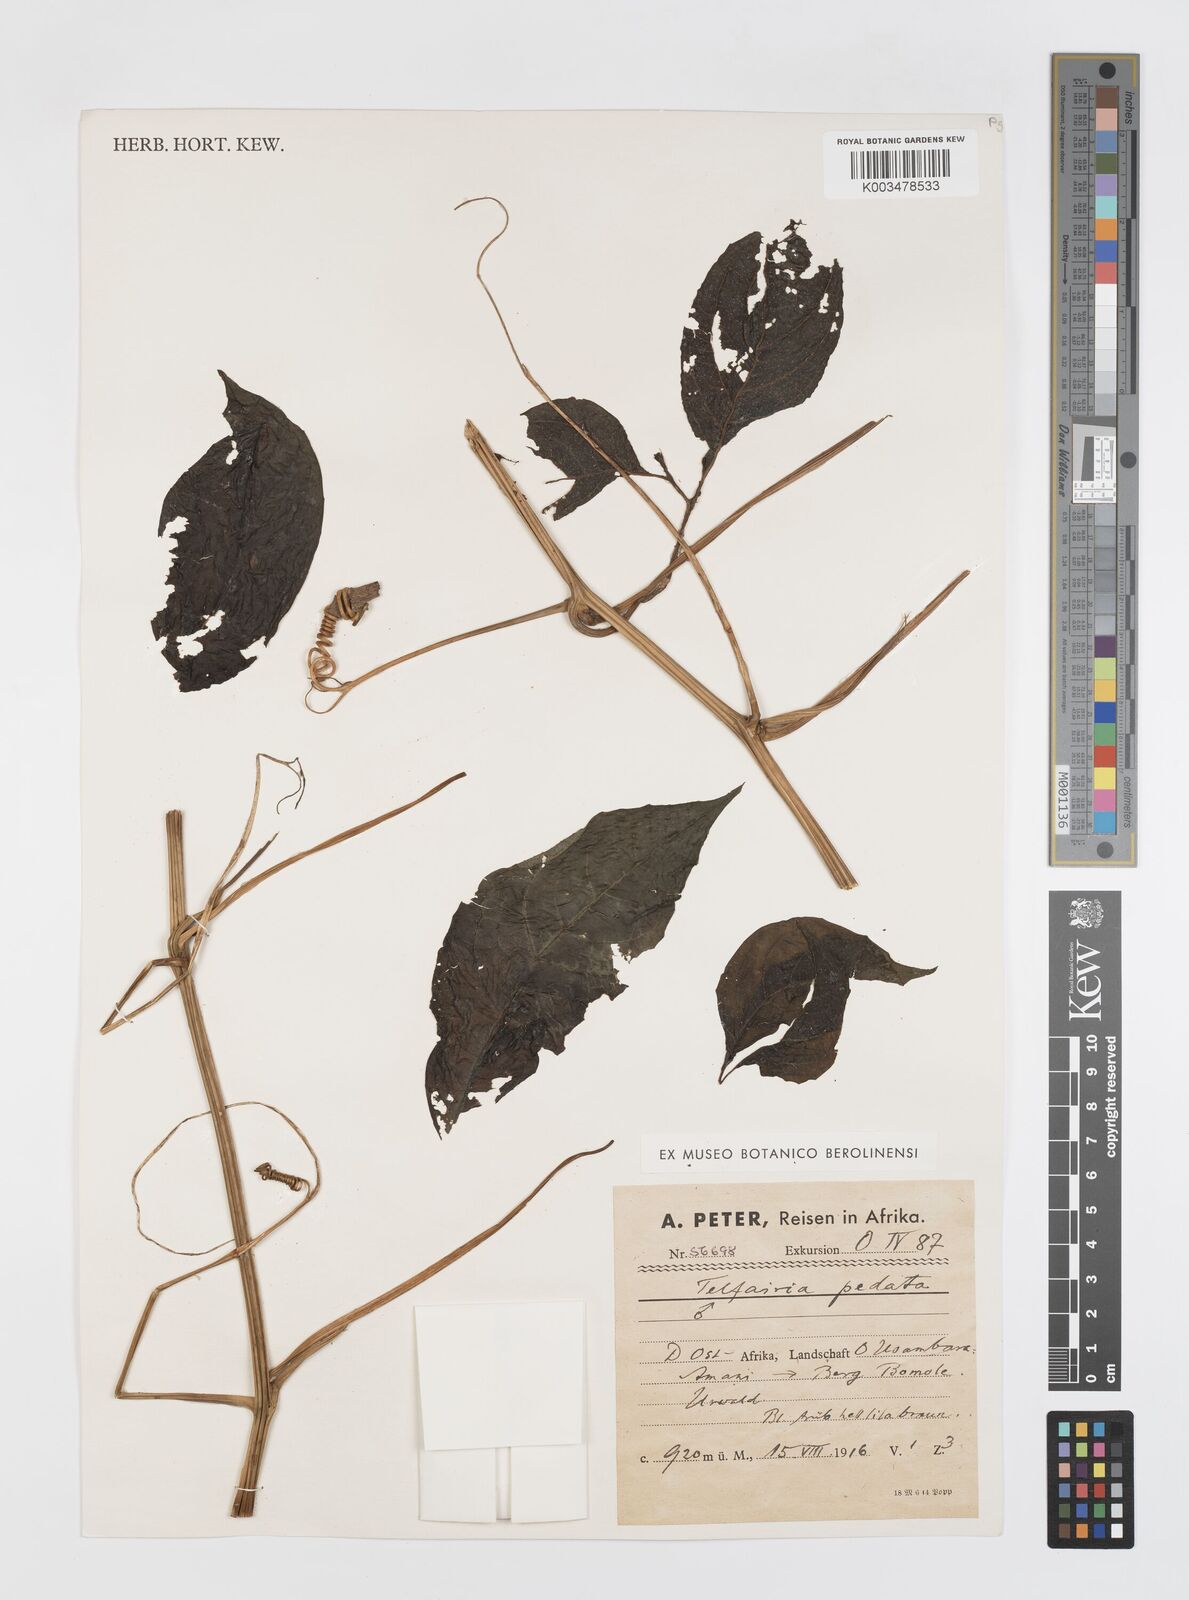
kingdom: Plantae
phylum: Tracheophyta
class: Magnoliopsida
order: Cucurbitales
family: Cucurbitaceae
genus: Telfairia
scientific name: Telfairia pedata
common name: Zanzibar oilvine
